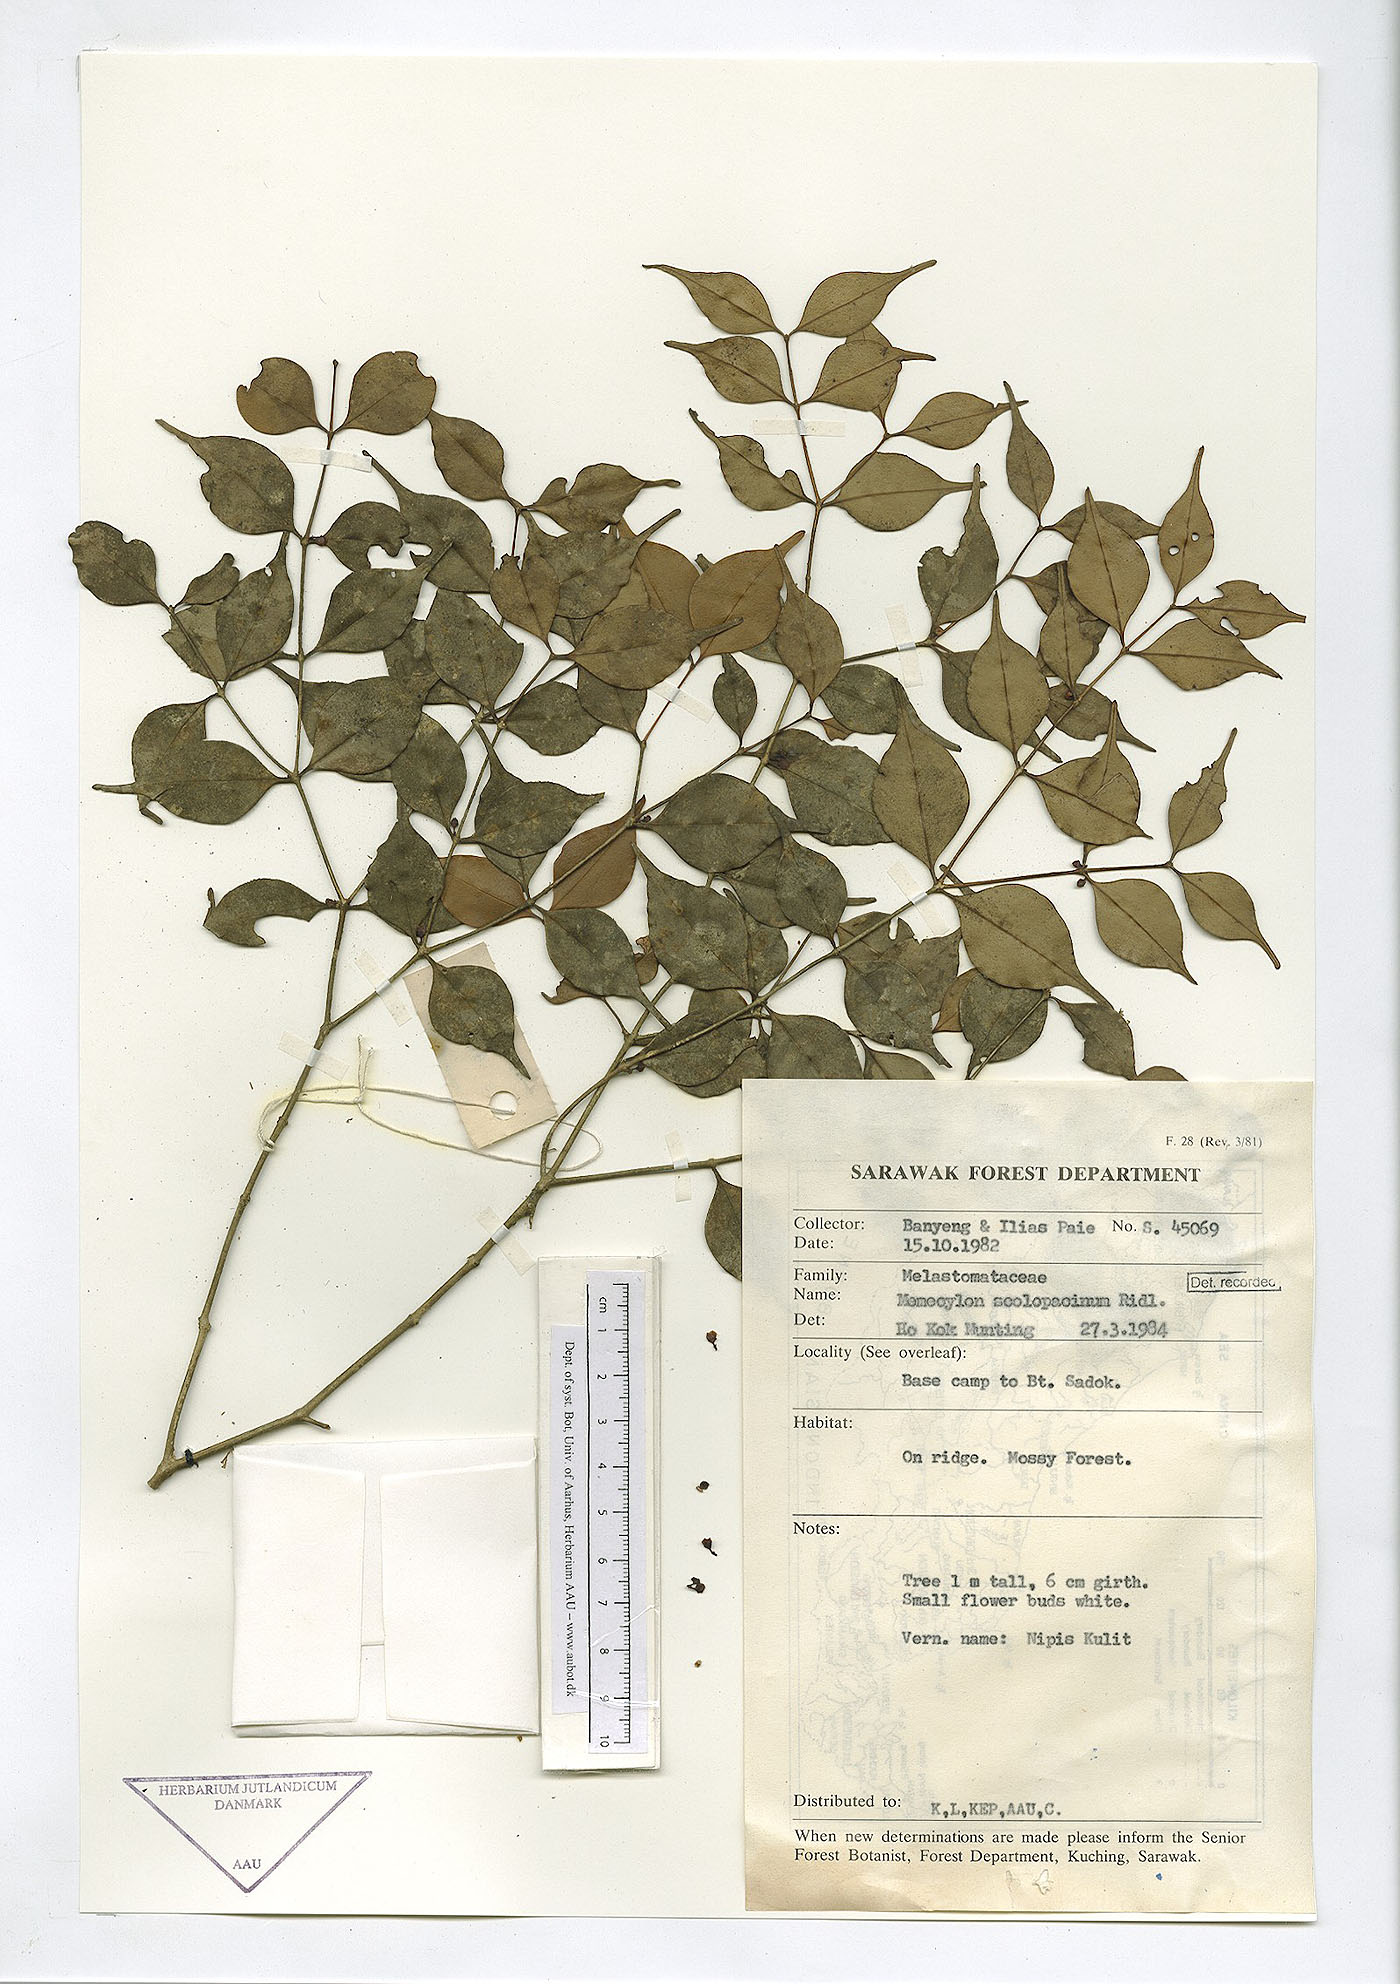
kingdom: Plantae
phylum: Tracheophyta
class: Magnoliopsida
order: Myrtales
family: Melastomataceae
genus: Memecylon
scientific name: Memecylon scolopacinum
